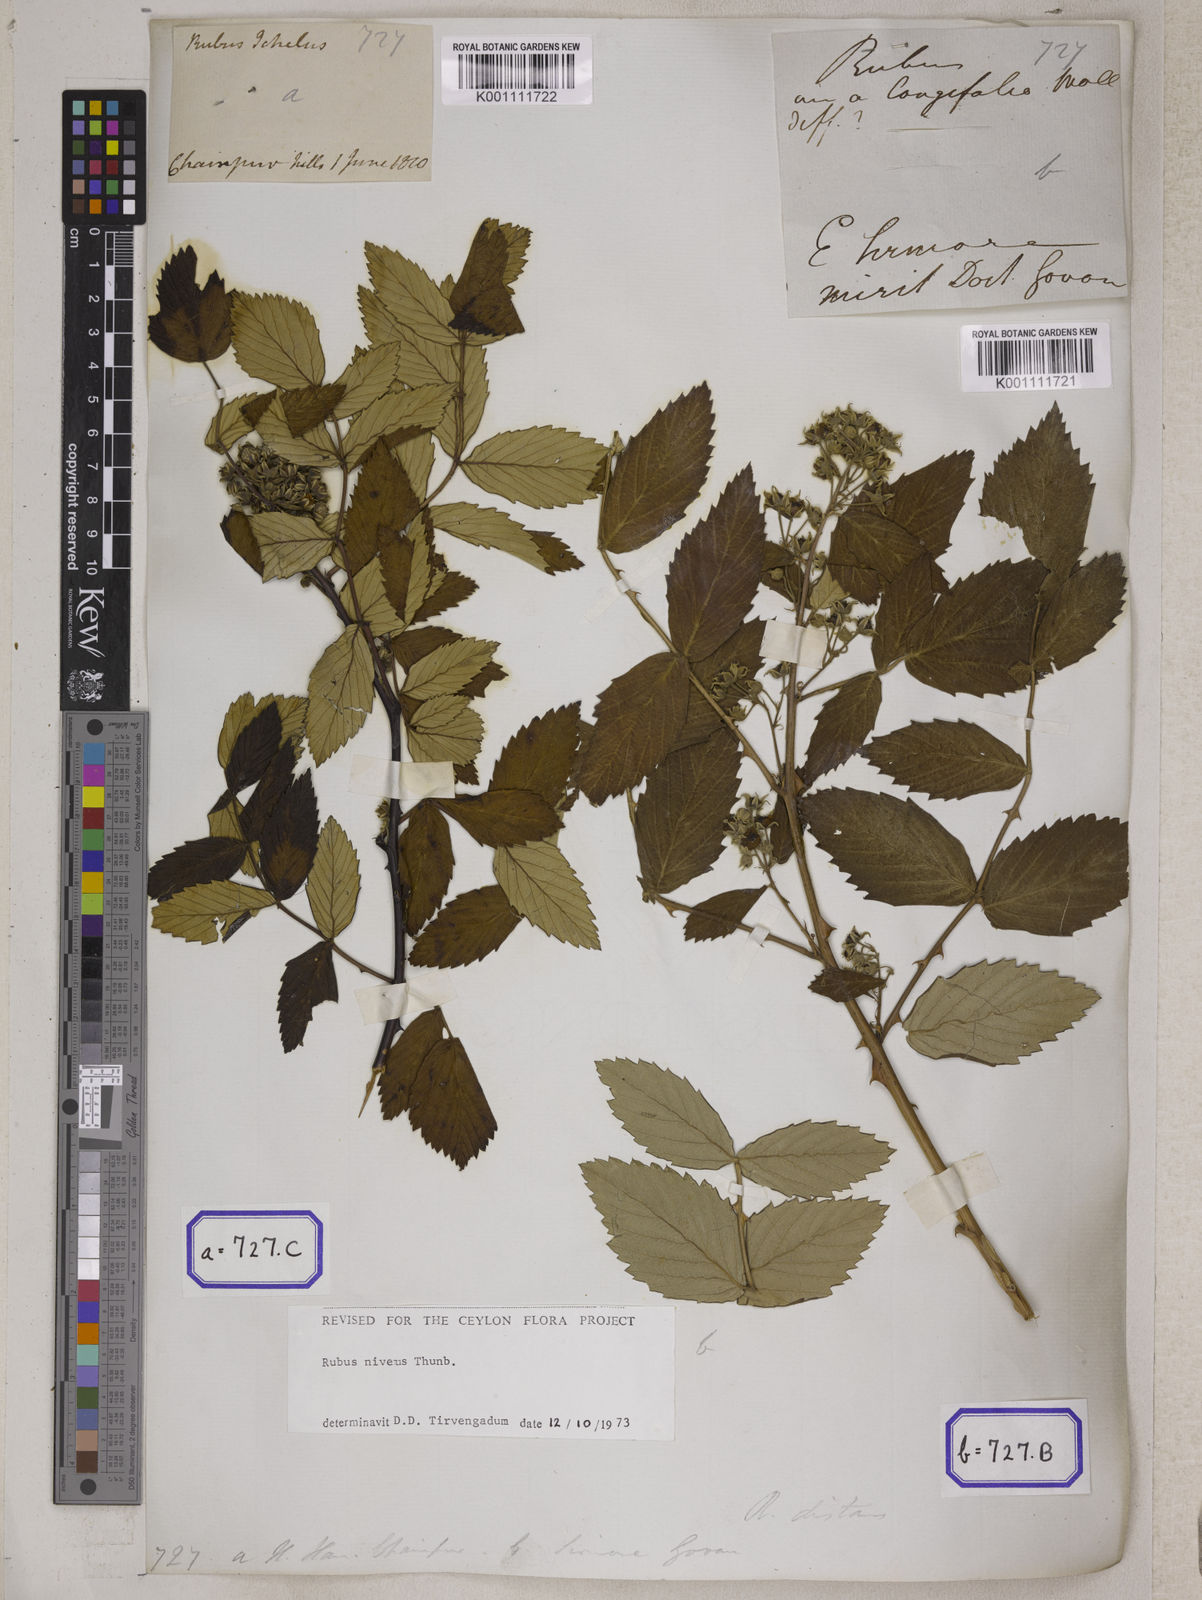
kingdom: Plantae
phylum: Tracheophyta
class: Magnoliopsida
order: Rosales
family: Rosaceae
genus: Rubus
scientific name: Rubus
